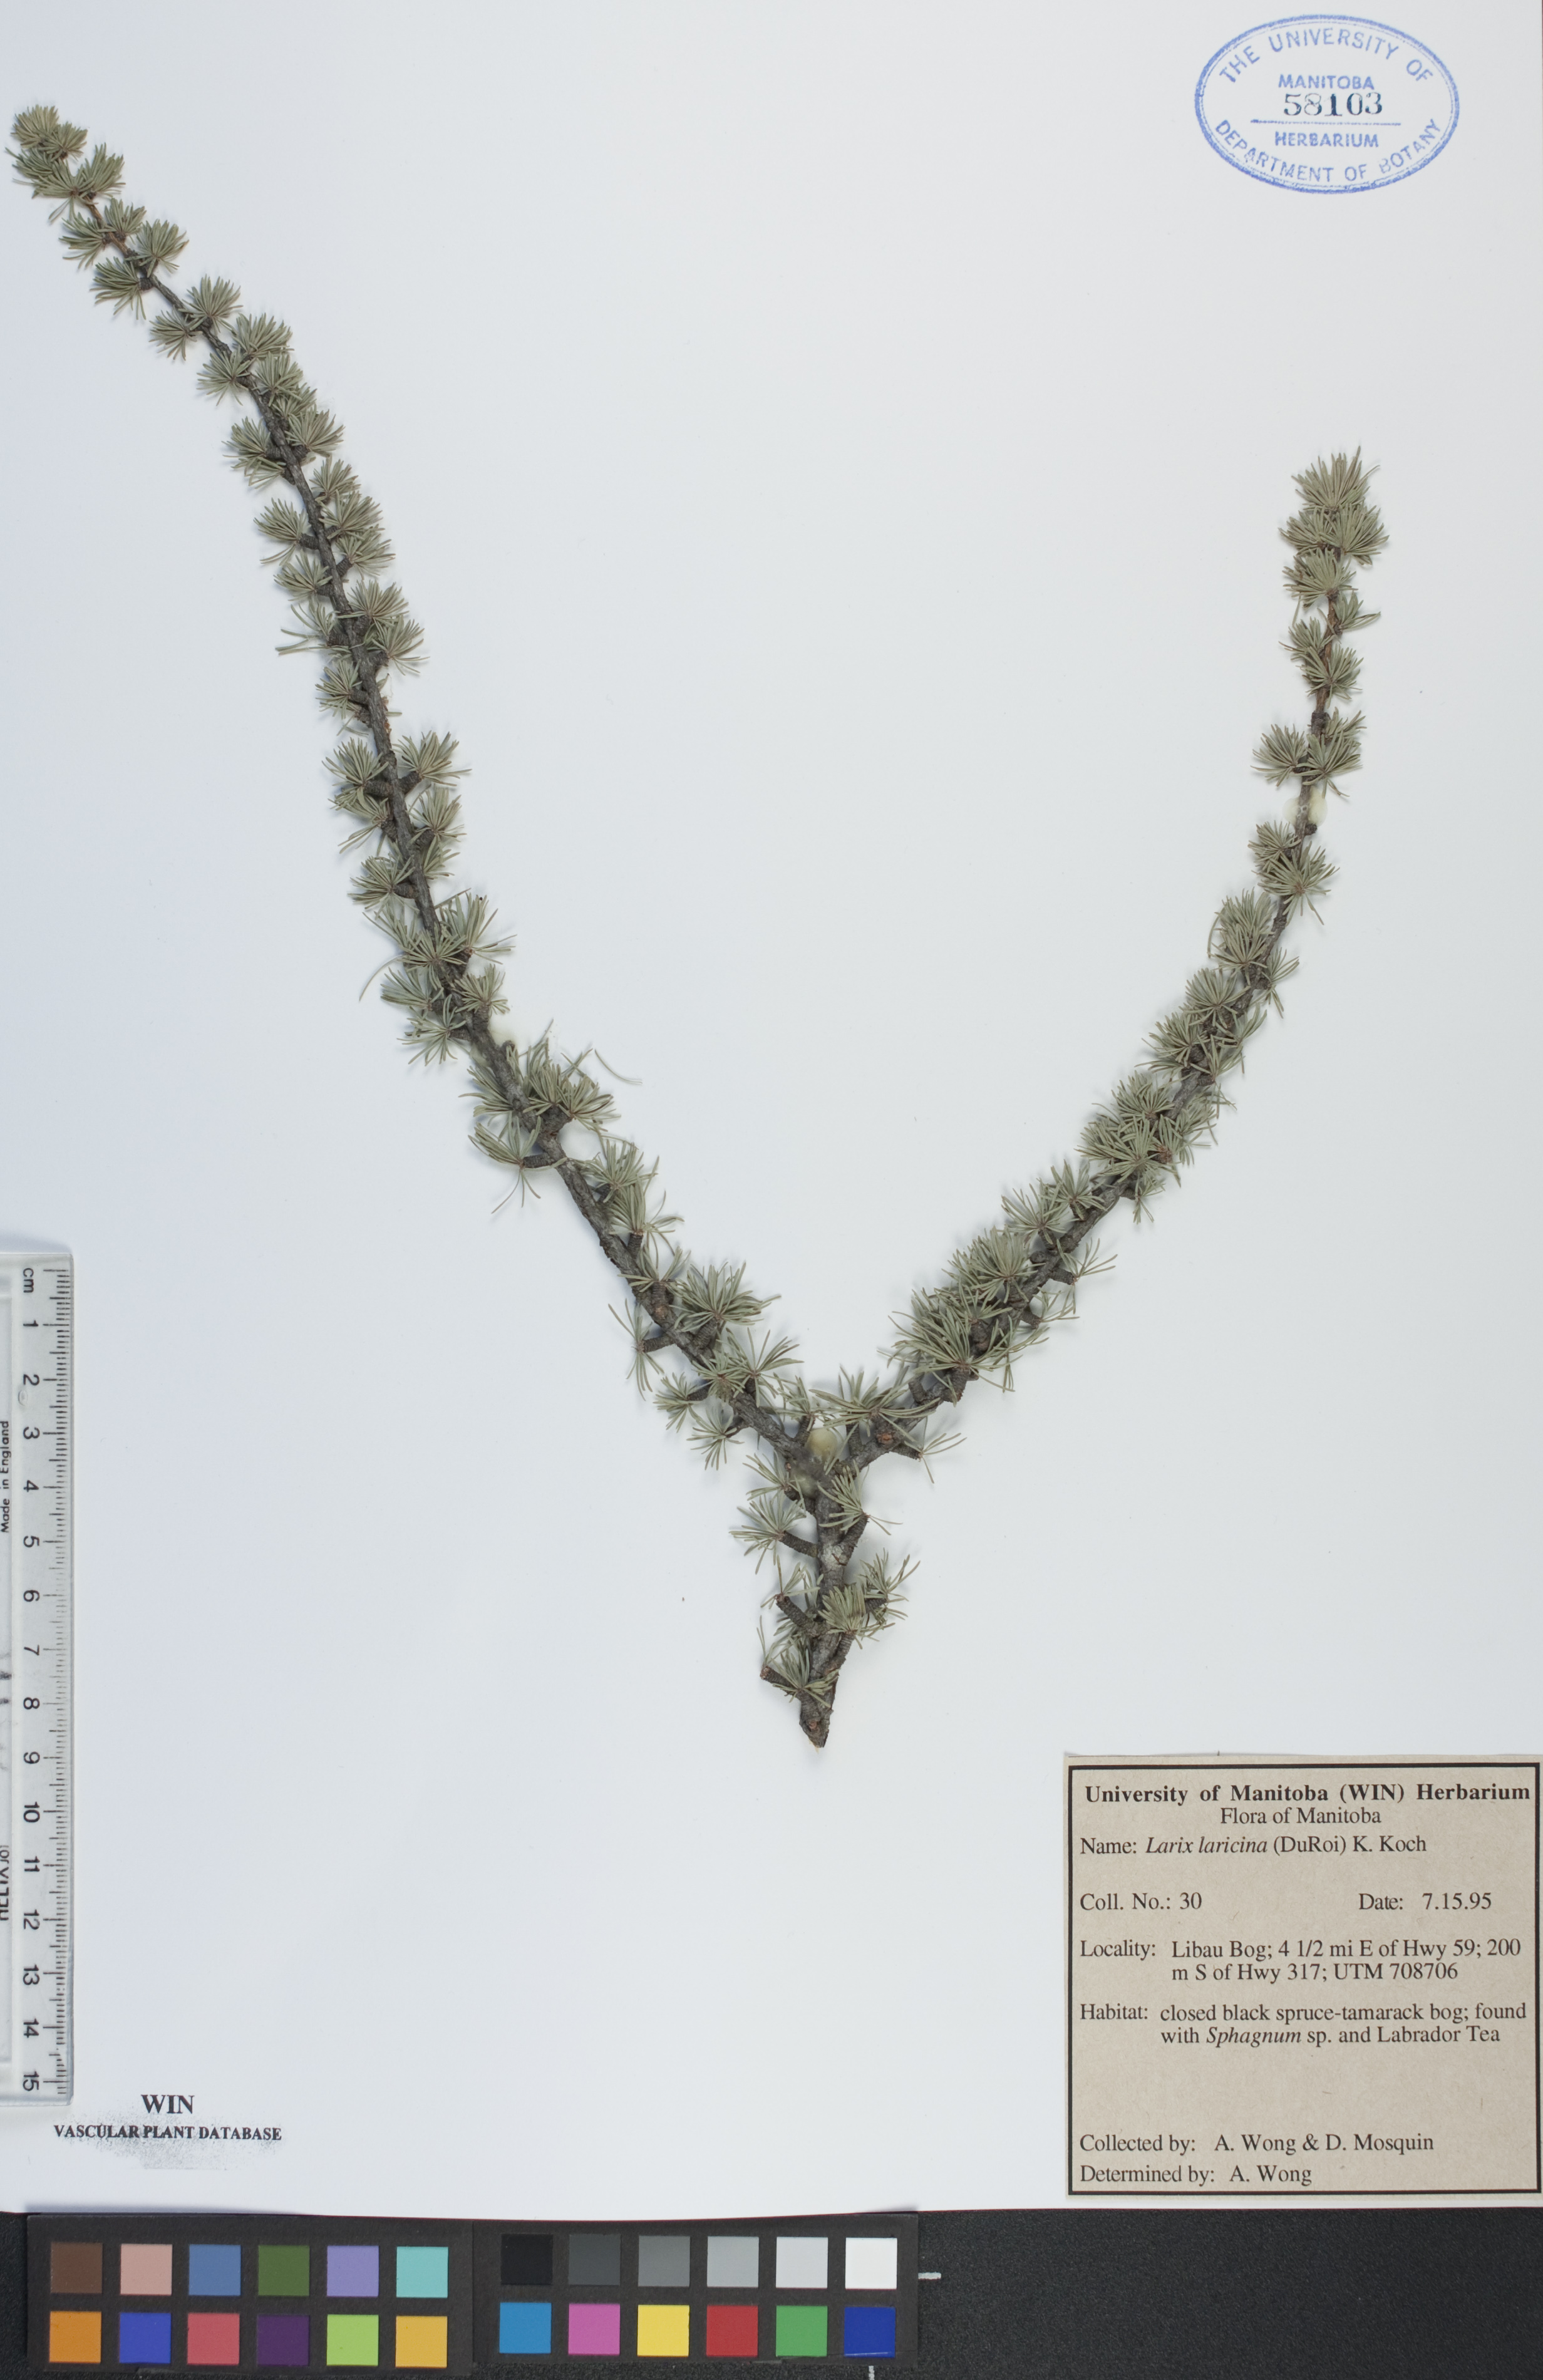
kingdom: Plantae
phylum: Tracheophyta
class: Pinopsida
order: Pinales
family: Pinaceae
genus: Larix
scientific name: Larix laricina
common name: American larch
